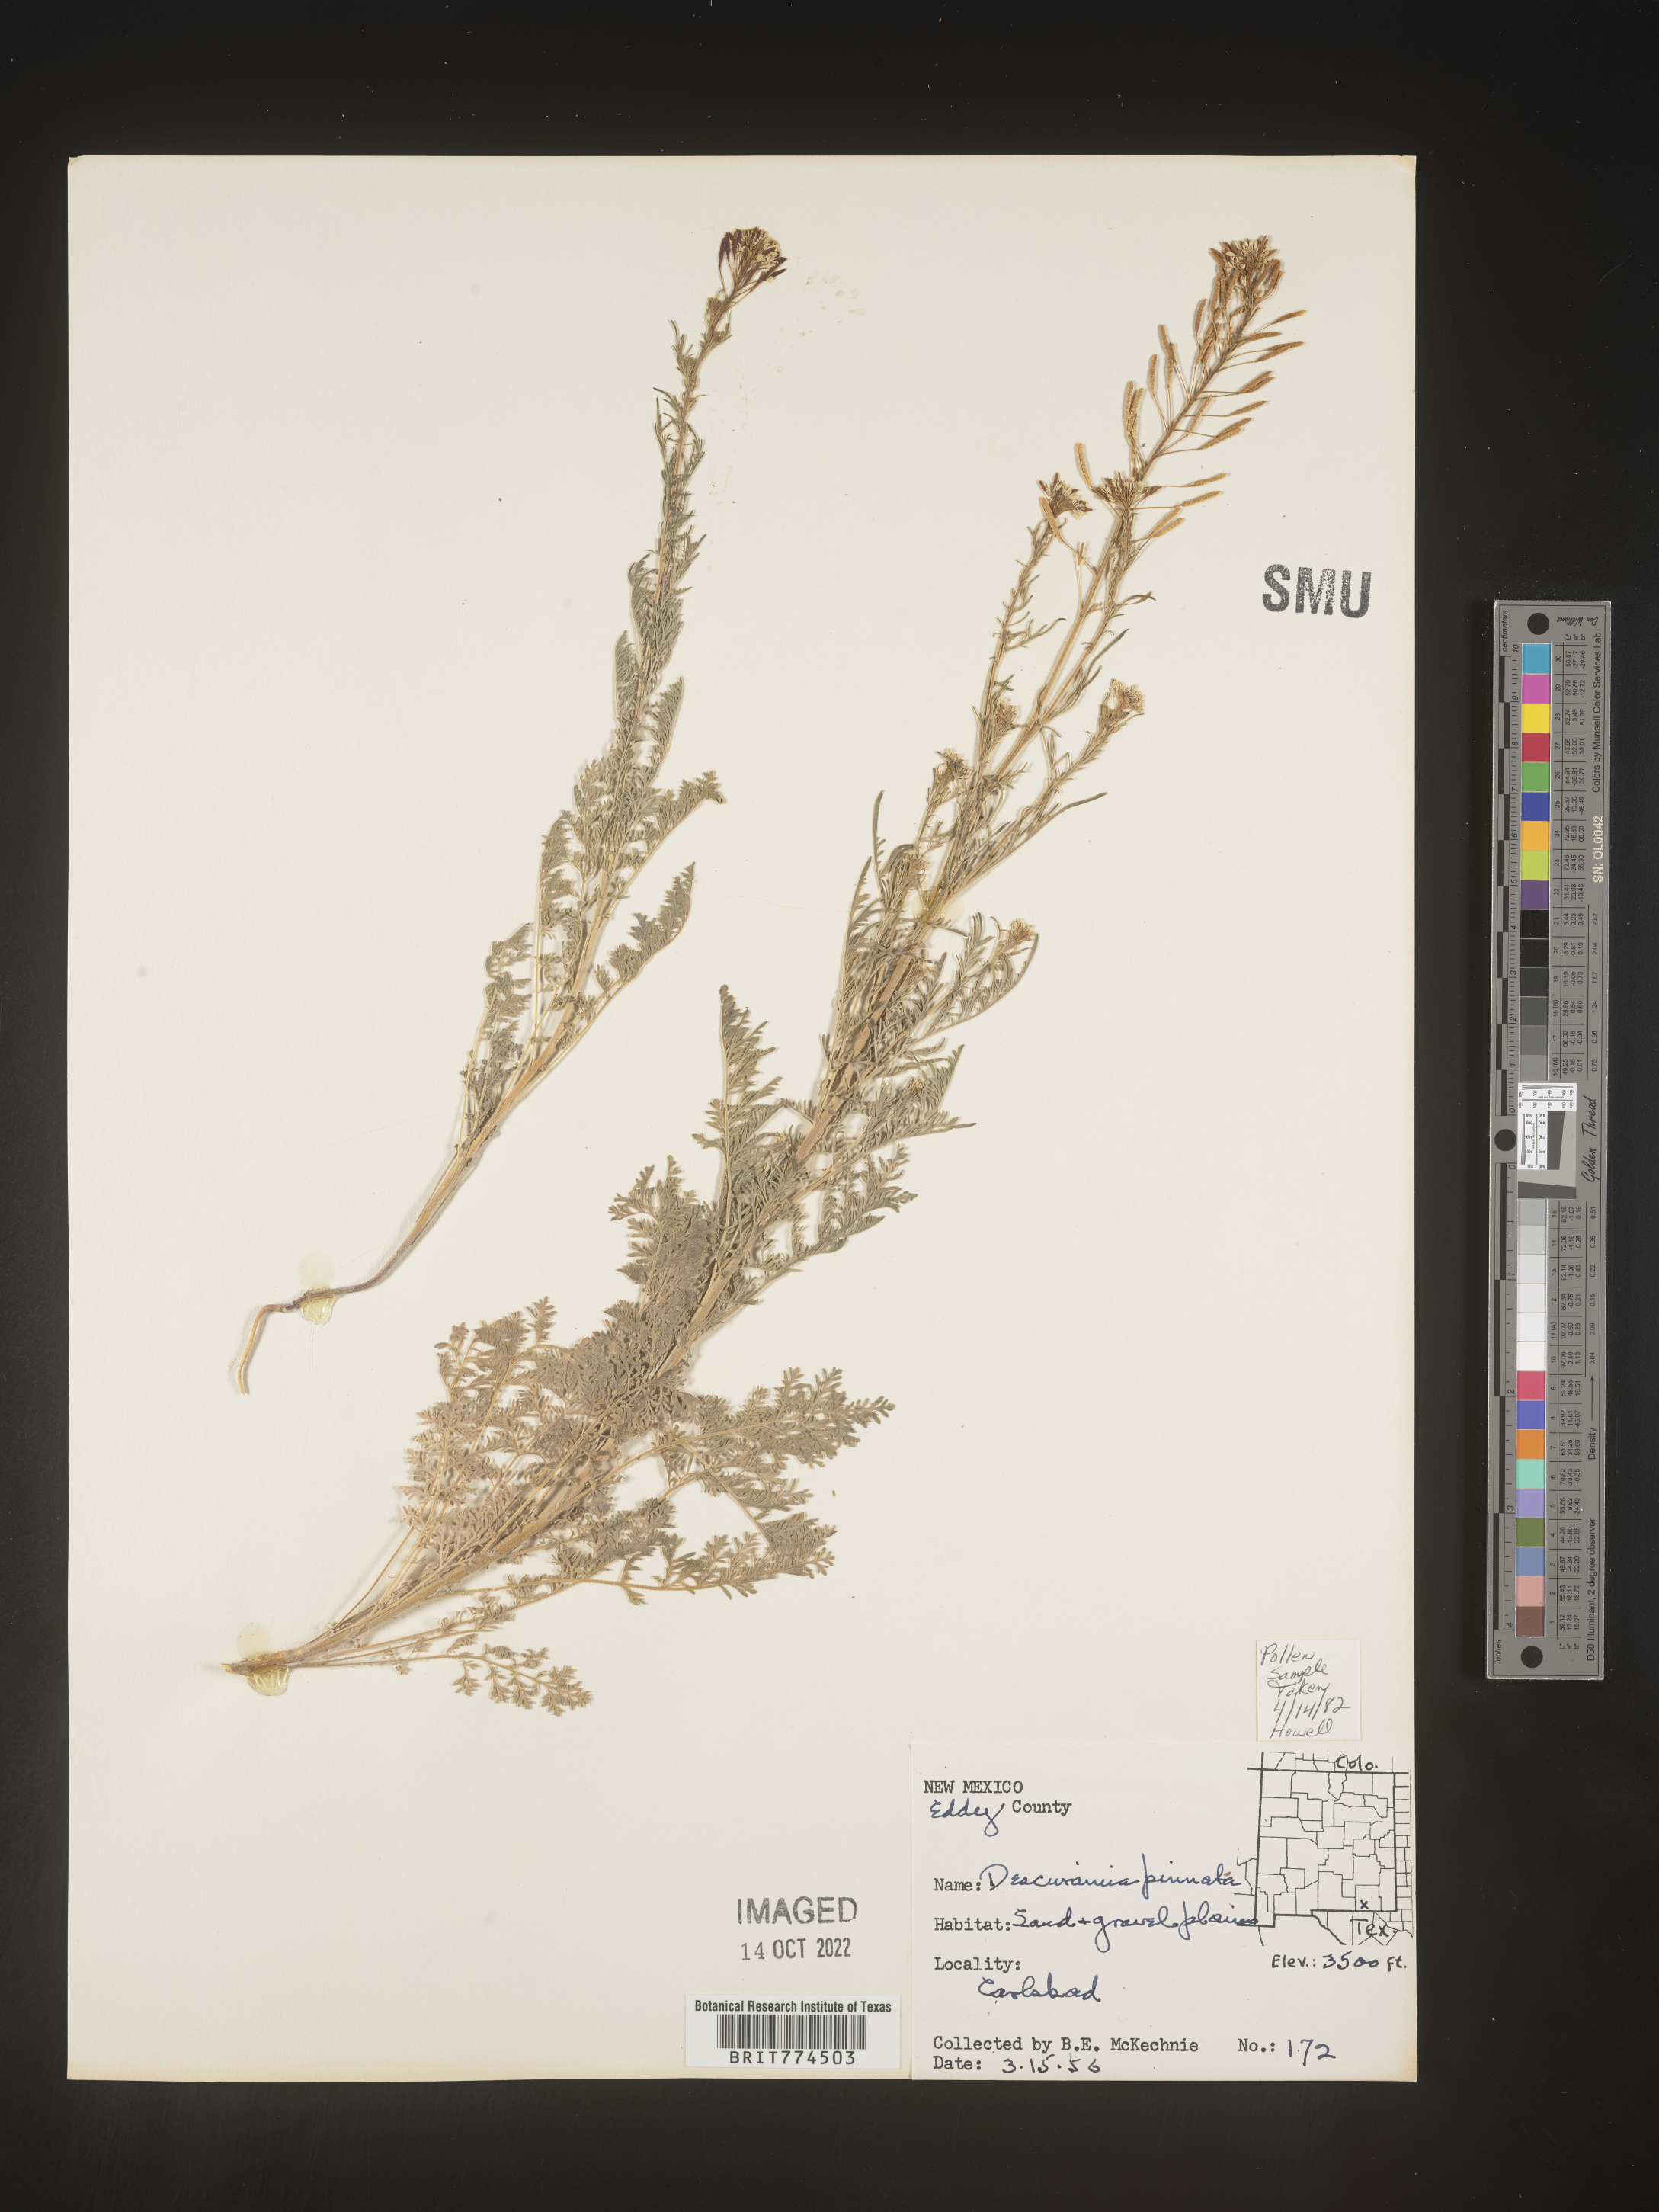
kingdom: Plantae
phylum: Tracheophyta
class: Magnoliopsida
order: Brassicales
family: Brassicaceae
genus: Descurainia
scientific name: Descurainia pinnata
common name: Western tansy mustard
